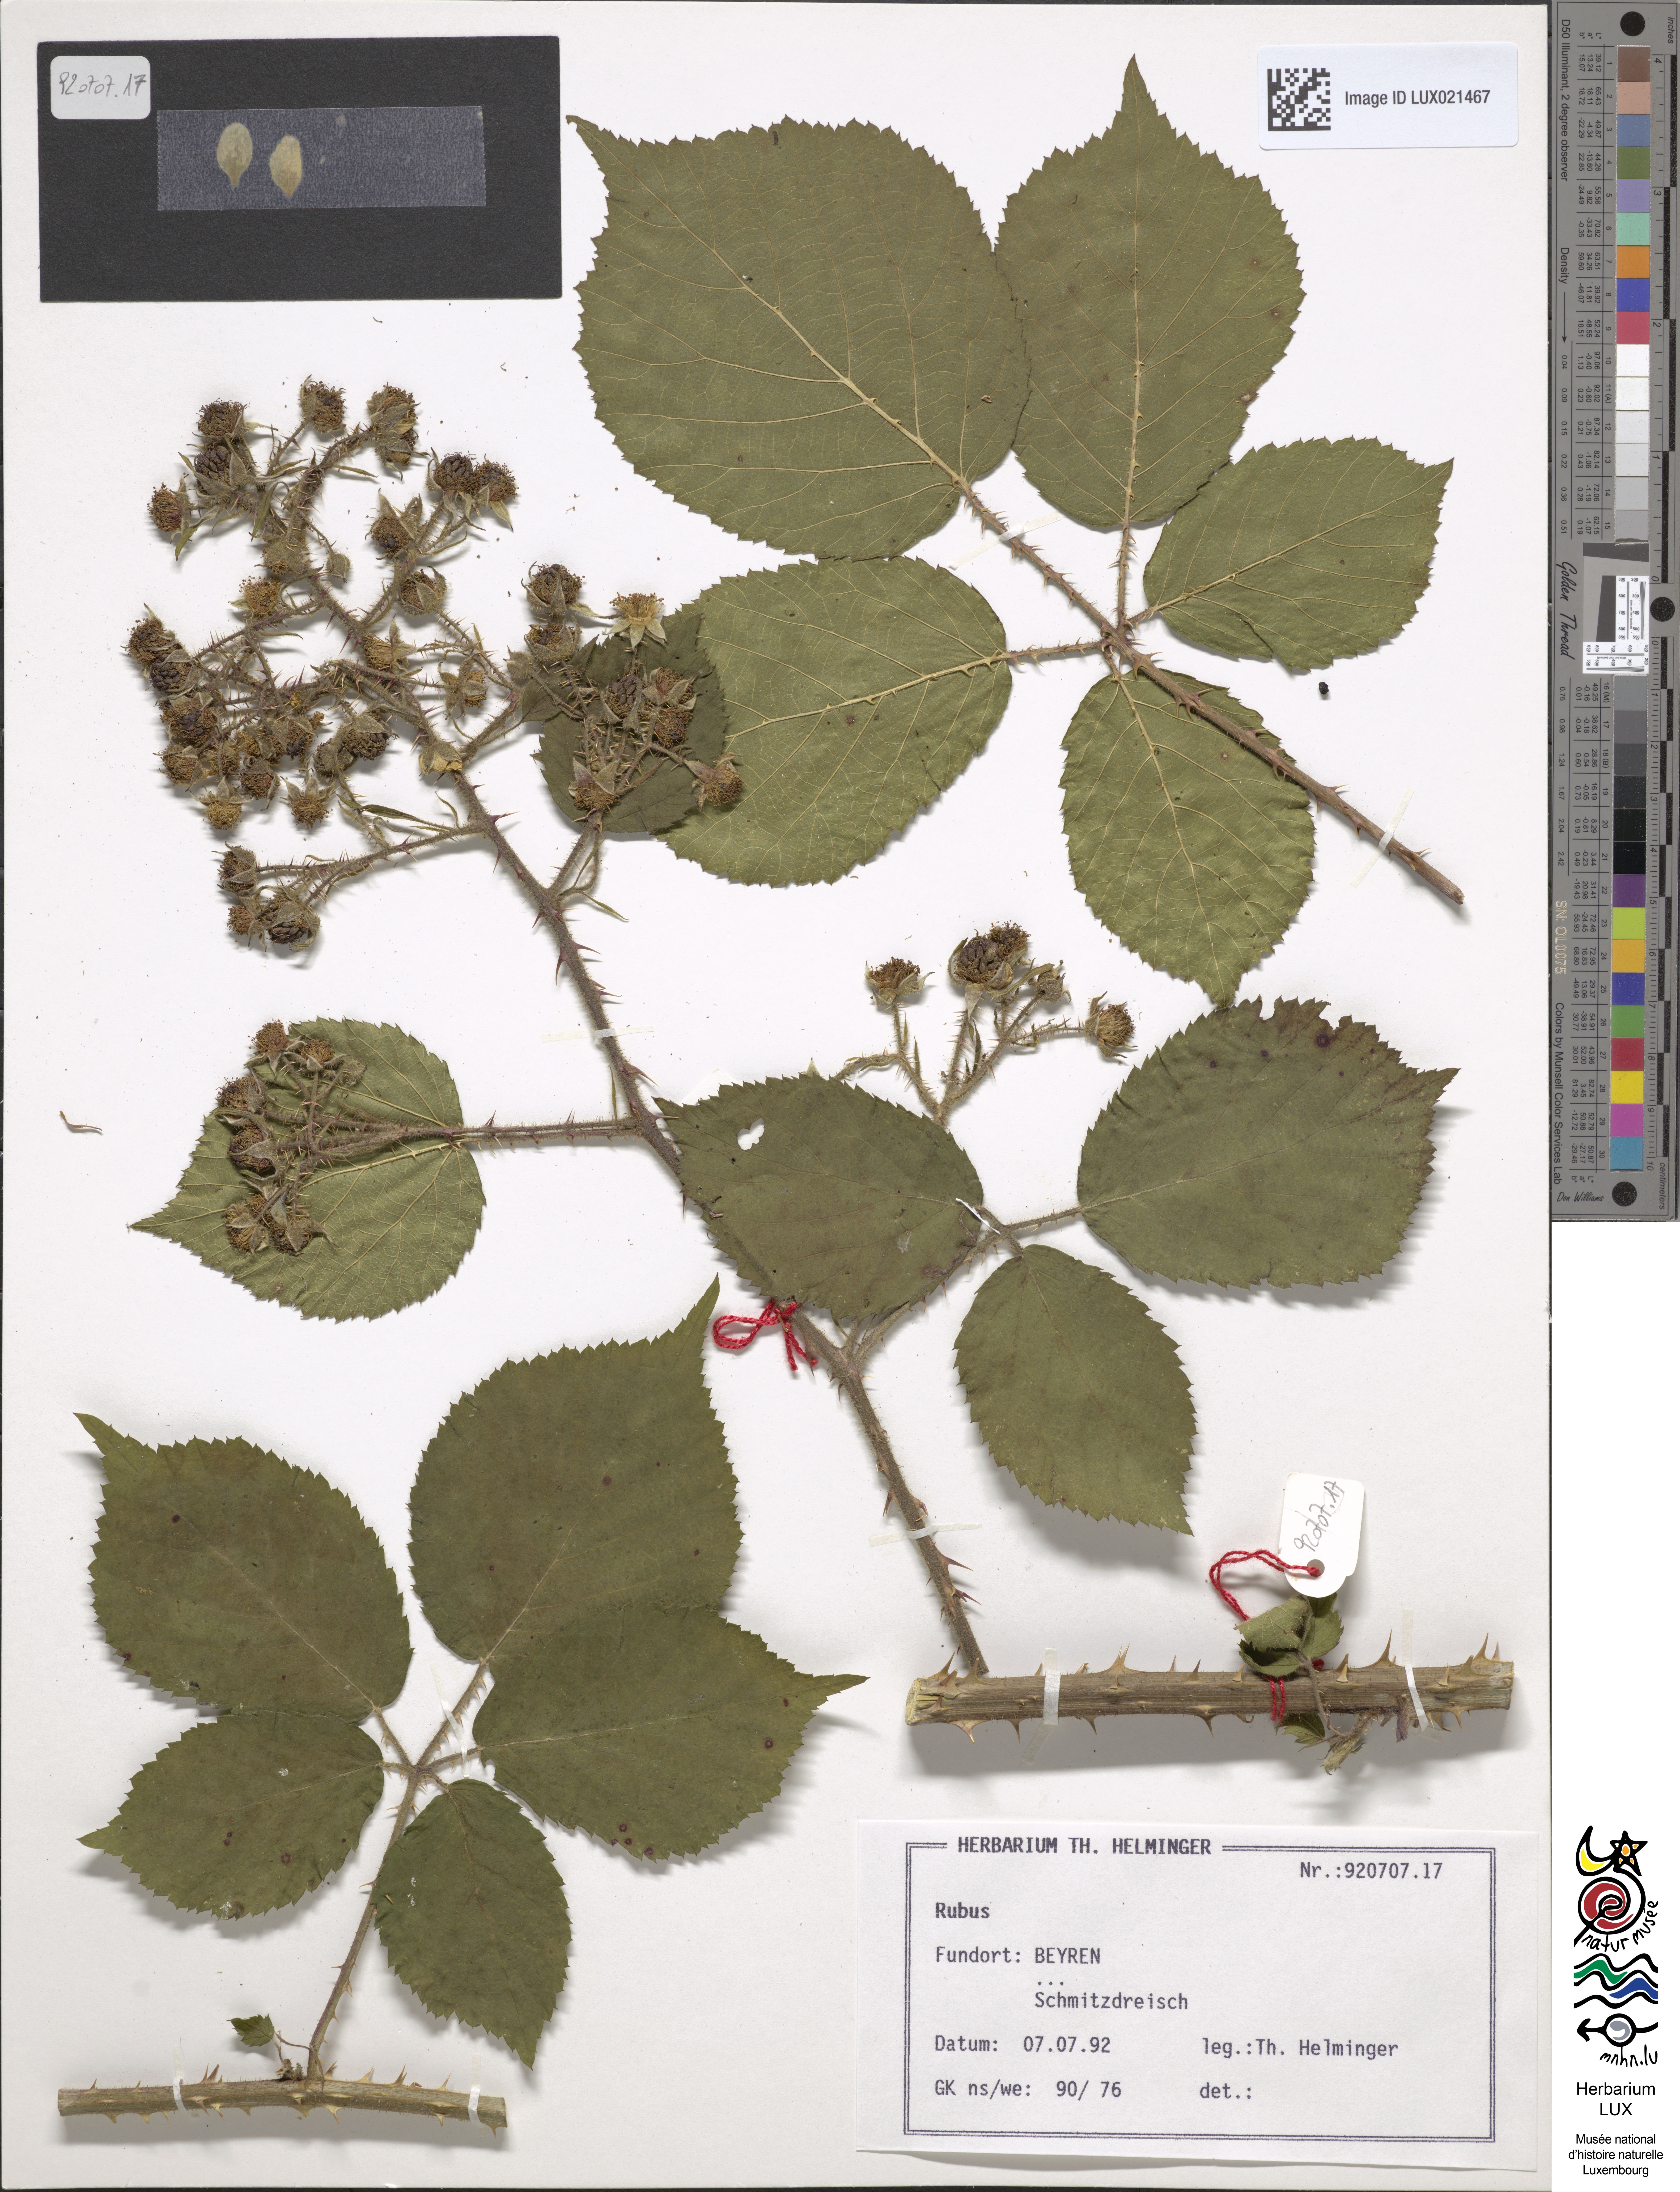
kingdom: Plantae
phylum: Tracheophyta
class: Magnoliopsida
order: Rosales
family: Rosaceae
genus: Rubus
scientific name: Rubus
